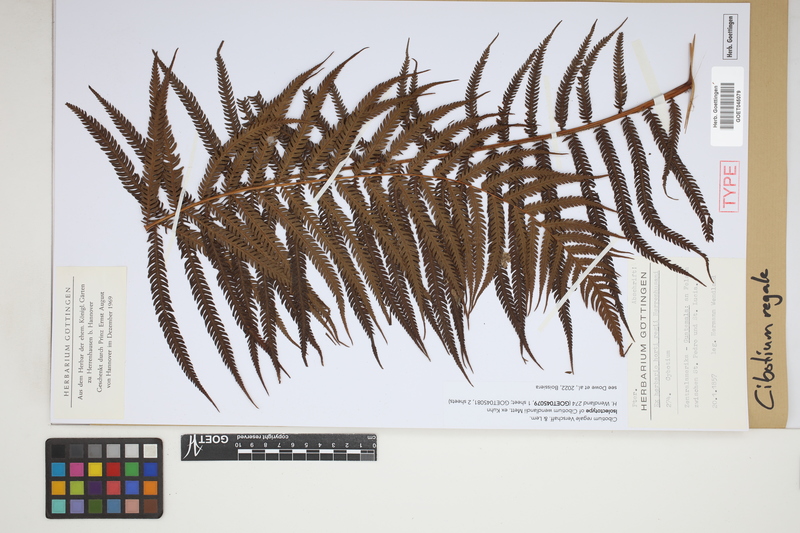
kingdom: Plantae
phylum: Tracheophyta
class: Polypodiopsida
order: Cyatheales
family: Cibotiaceae
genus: Cibotium
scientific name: Cibotium regale
